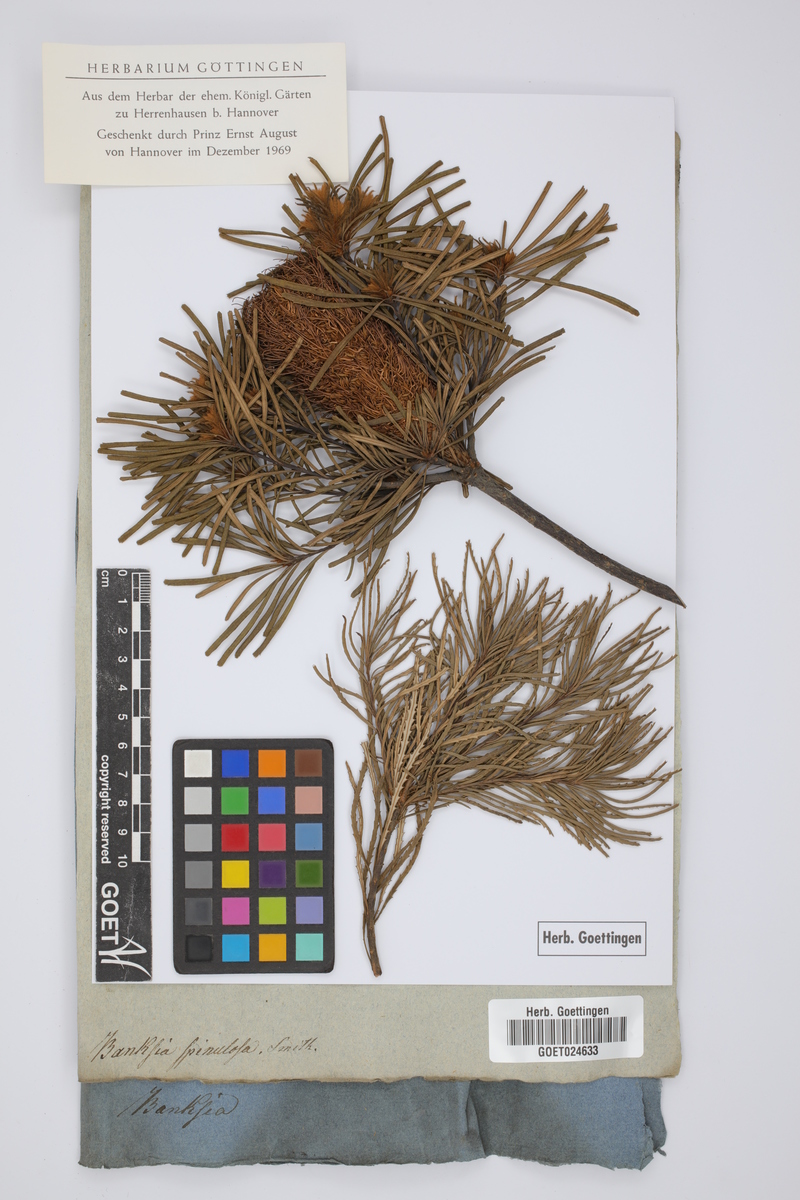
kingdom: Plantae
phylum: Tracheophyta
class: Magnoliopsida
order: Proteales
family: Proteaceae
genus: Banksia
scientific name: Banksia spinulosa
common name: Hairpin banksia
